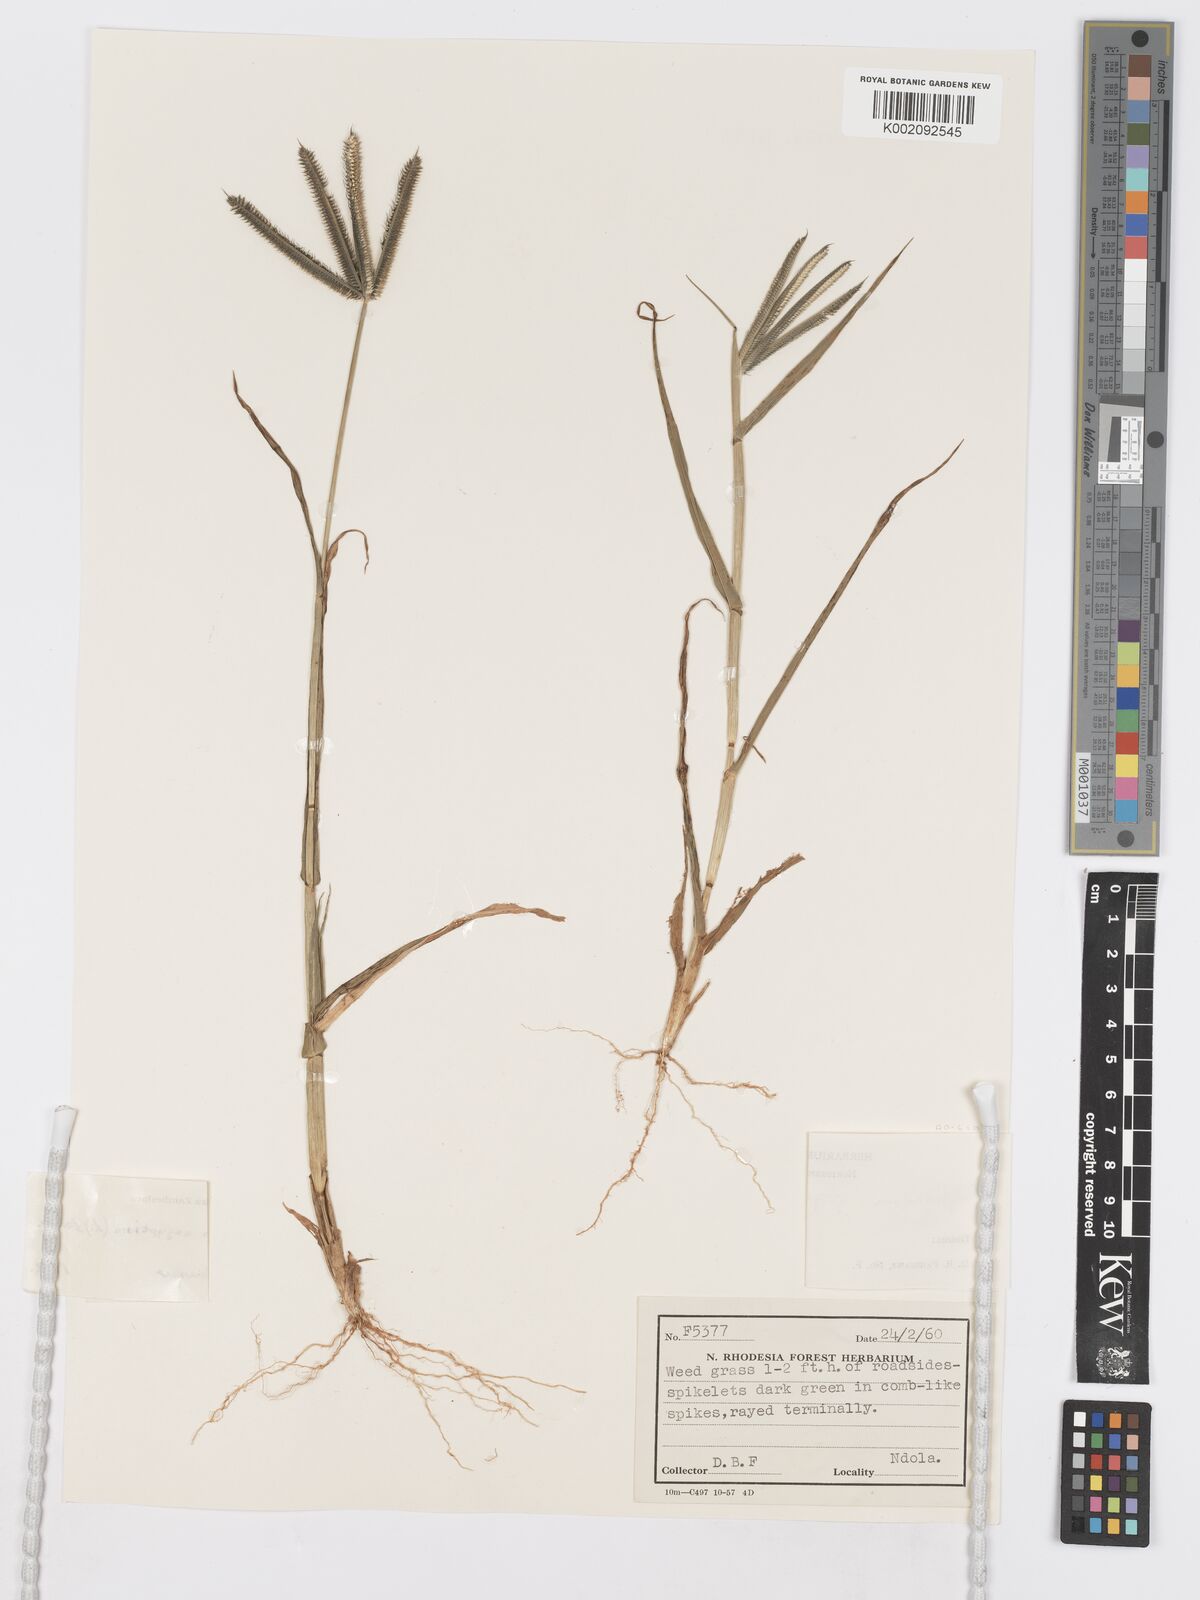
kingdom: Plantae
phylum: Tracheophyta
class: Liliopsida
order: Poales
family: Poaceae
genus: Dactyloctenium
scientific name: Dactyloctenium aegyptium
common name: Egyptian grass
